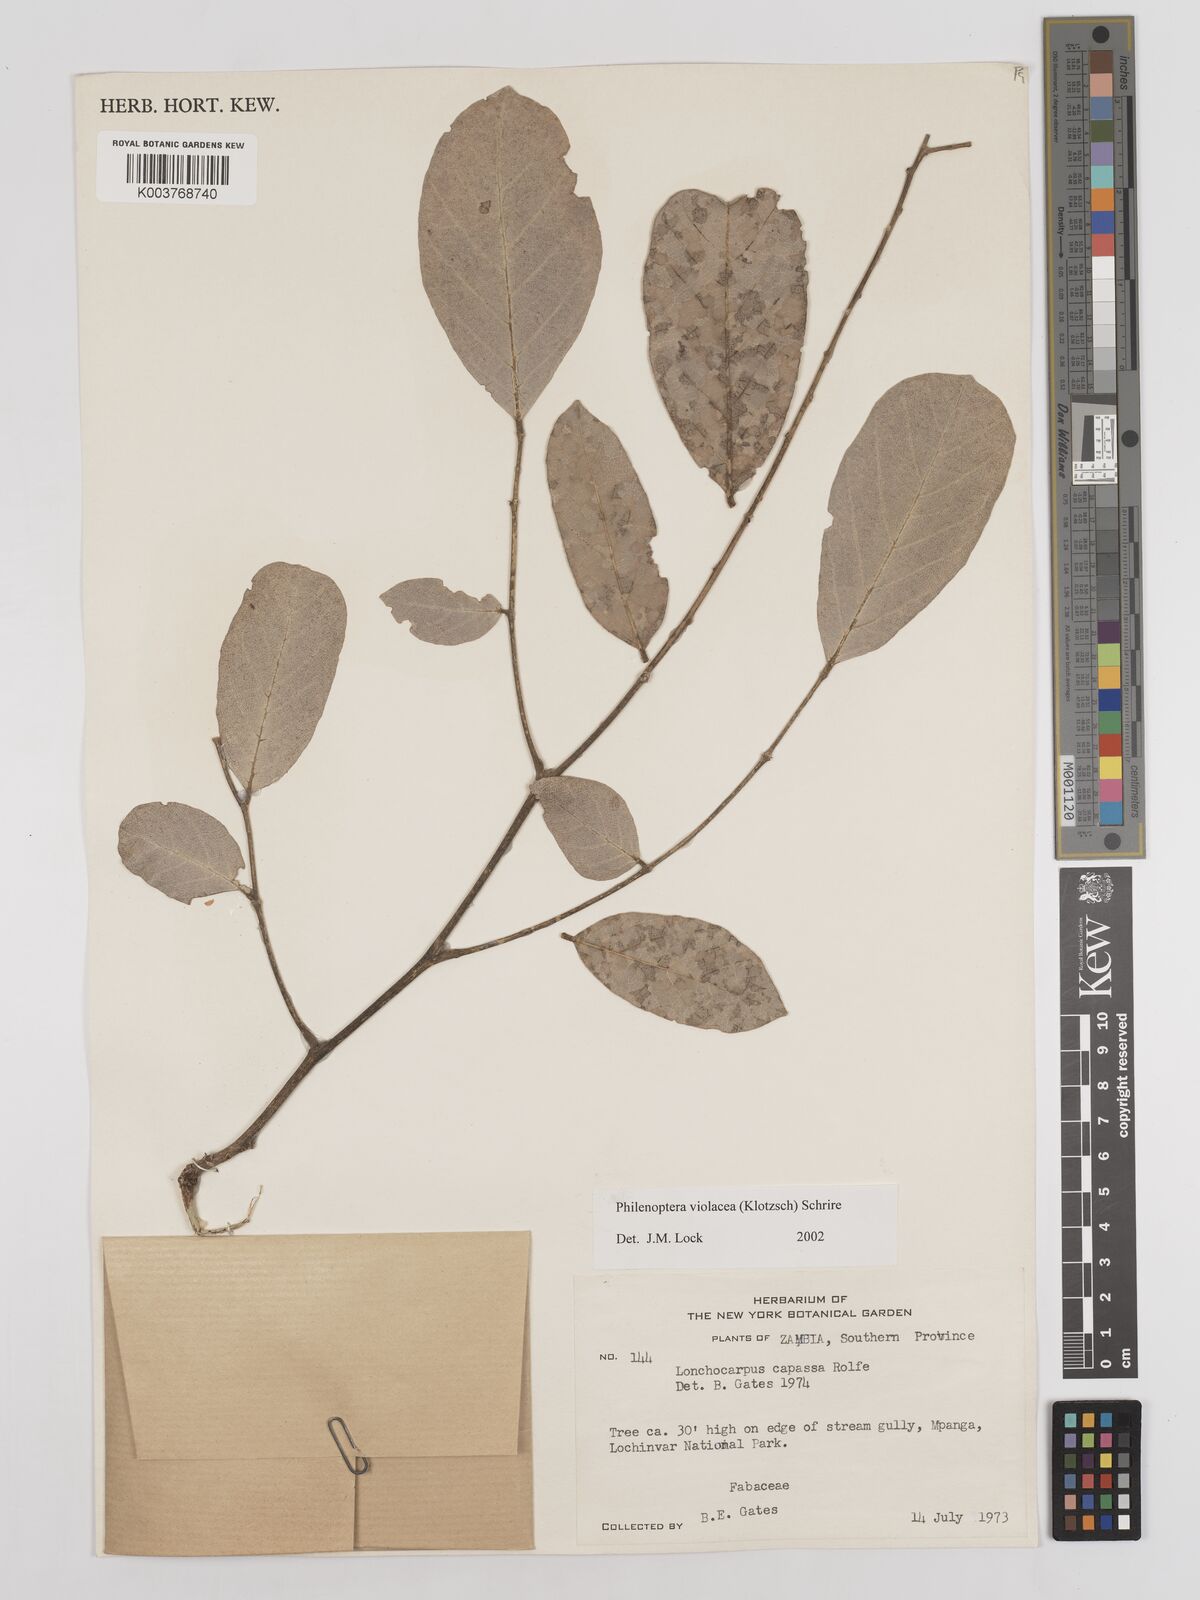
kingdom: Plantae
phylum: Tracheophyta
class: Magnoliopsida
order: Fabales
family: Fabaceae
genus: Philenoptera
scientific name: Philenoptera violacea
